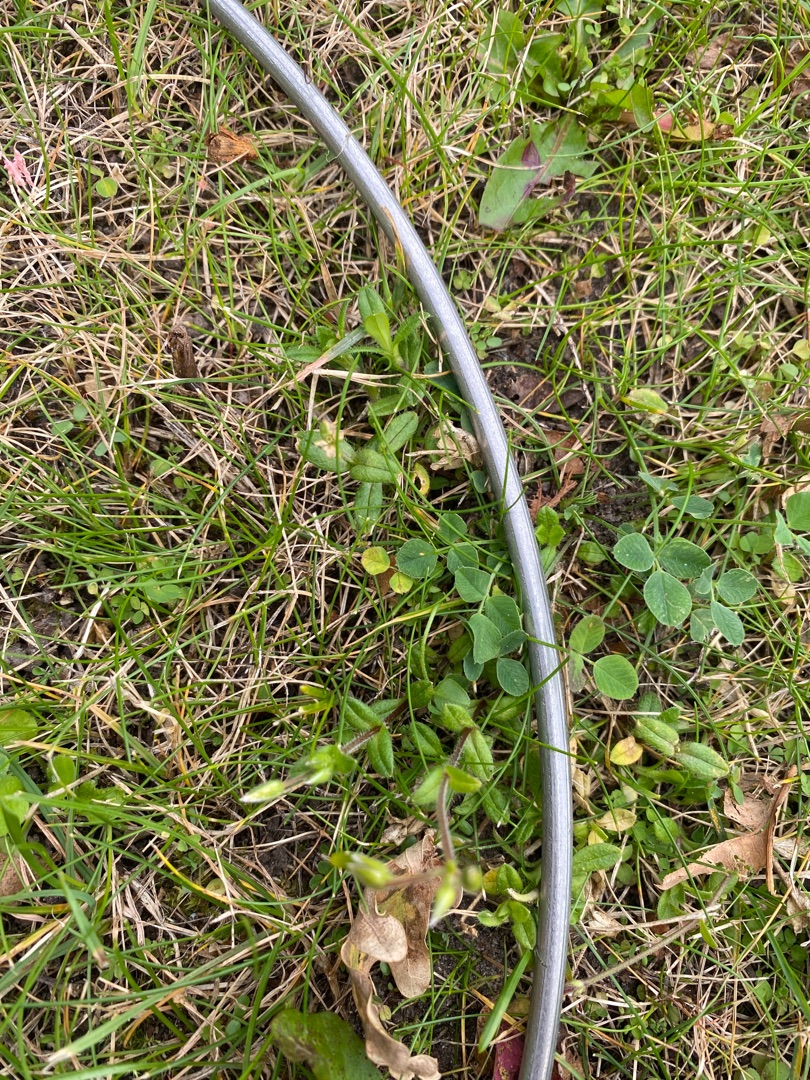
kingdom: Plantae
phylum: Tracheophyta
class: Magnoliopsida
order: Caryophyllales
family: Caryophyllaceae
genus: Cerastium
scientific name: Cerastium holosteoides
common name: Almindelig hønsetarm (varietet)
